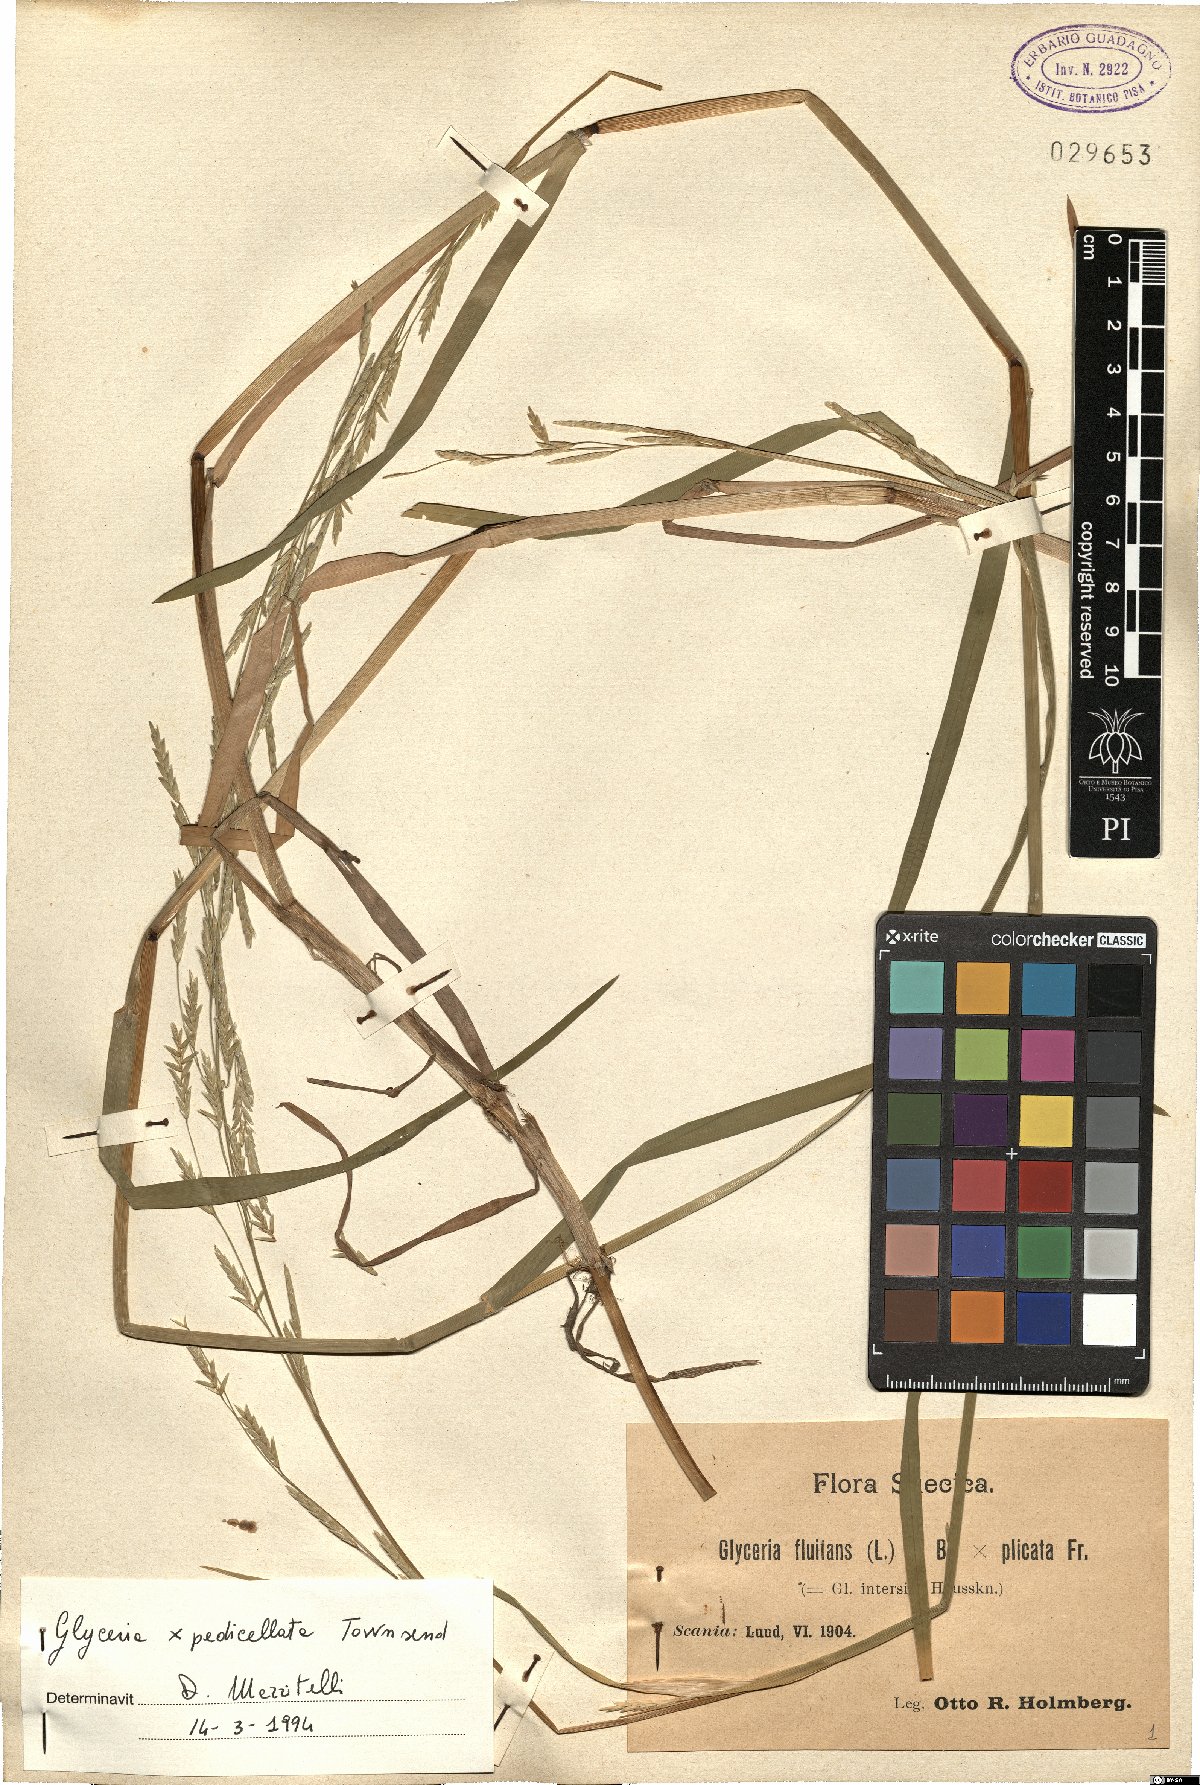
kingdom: Plantae
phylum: Tracheophyta
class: Liliopsida
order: Poales
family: Poaceae
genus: Glyceria
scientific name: Glyceria pedicellata
